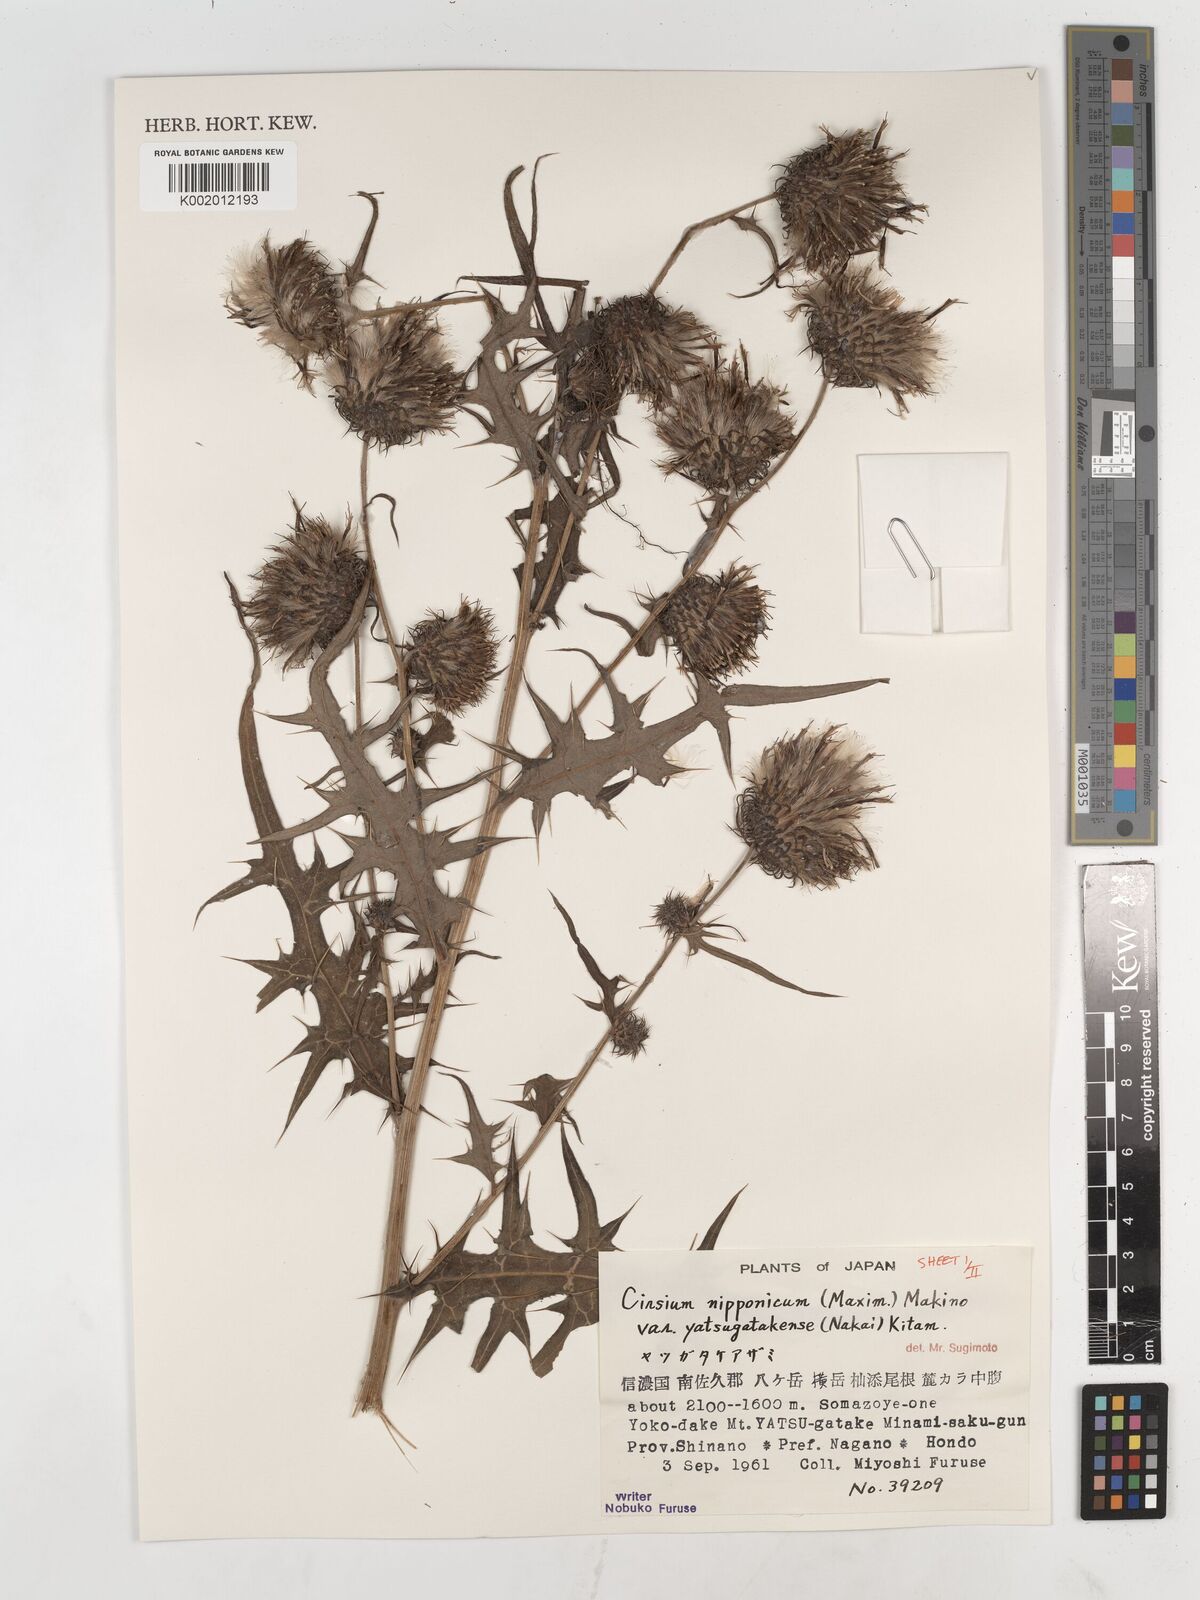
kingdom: Plantae
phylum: Tracheophyta
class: Magnoliopsida
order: Asterales
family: Asteraceae
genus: Cirsium
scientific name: Cirsium nipponicum
